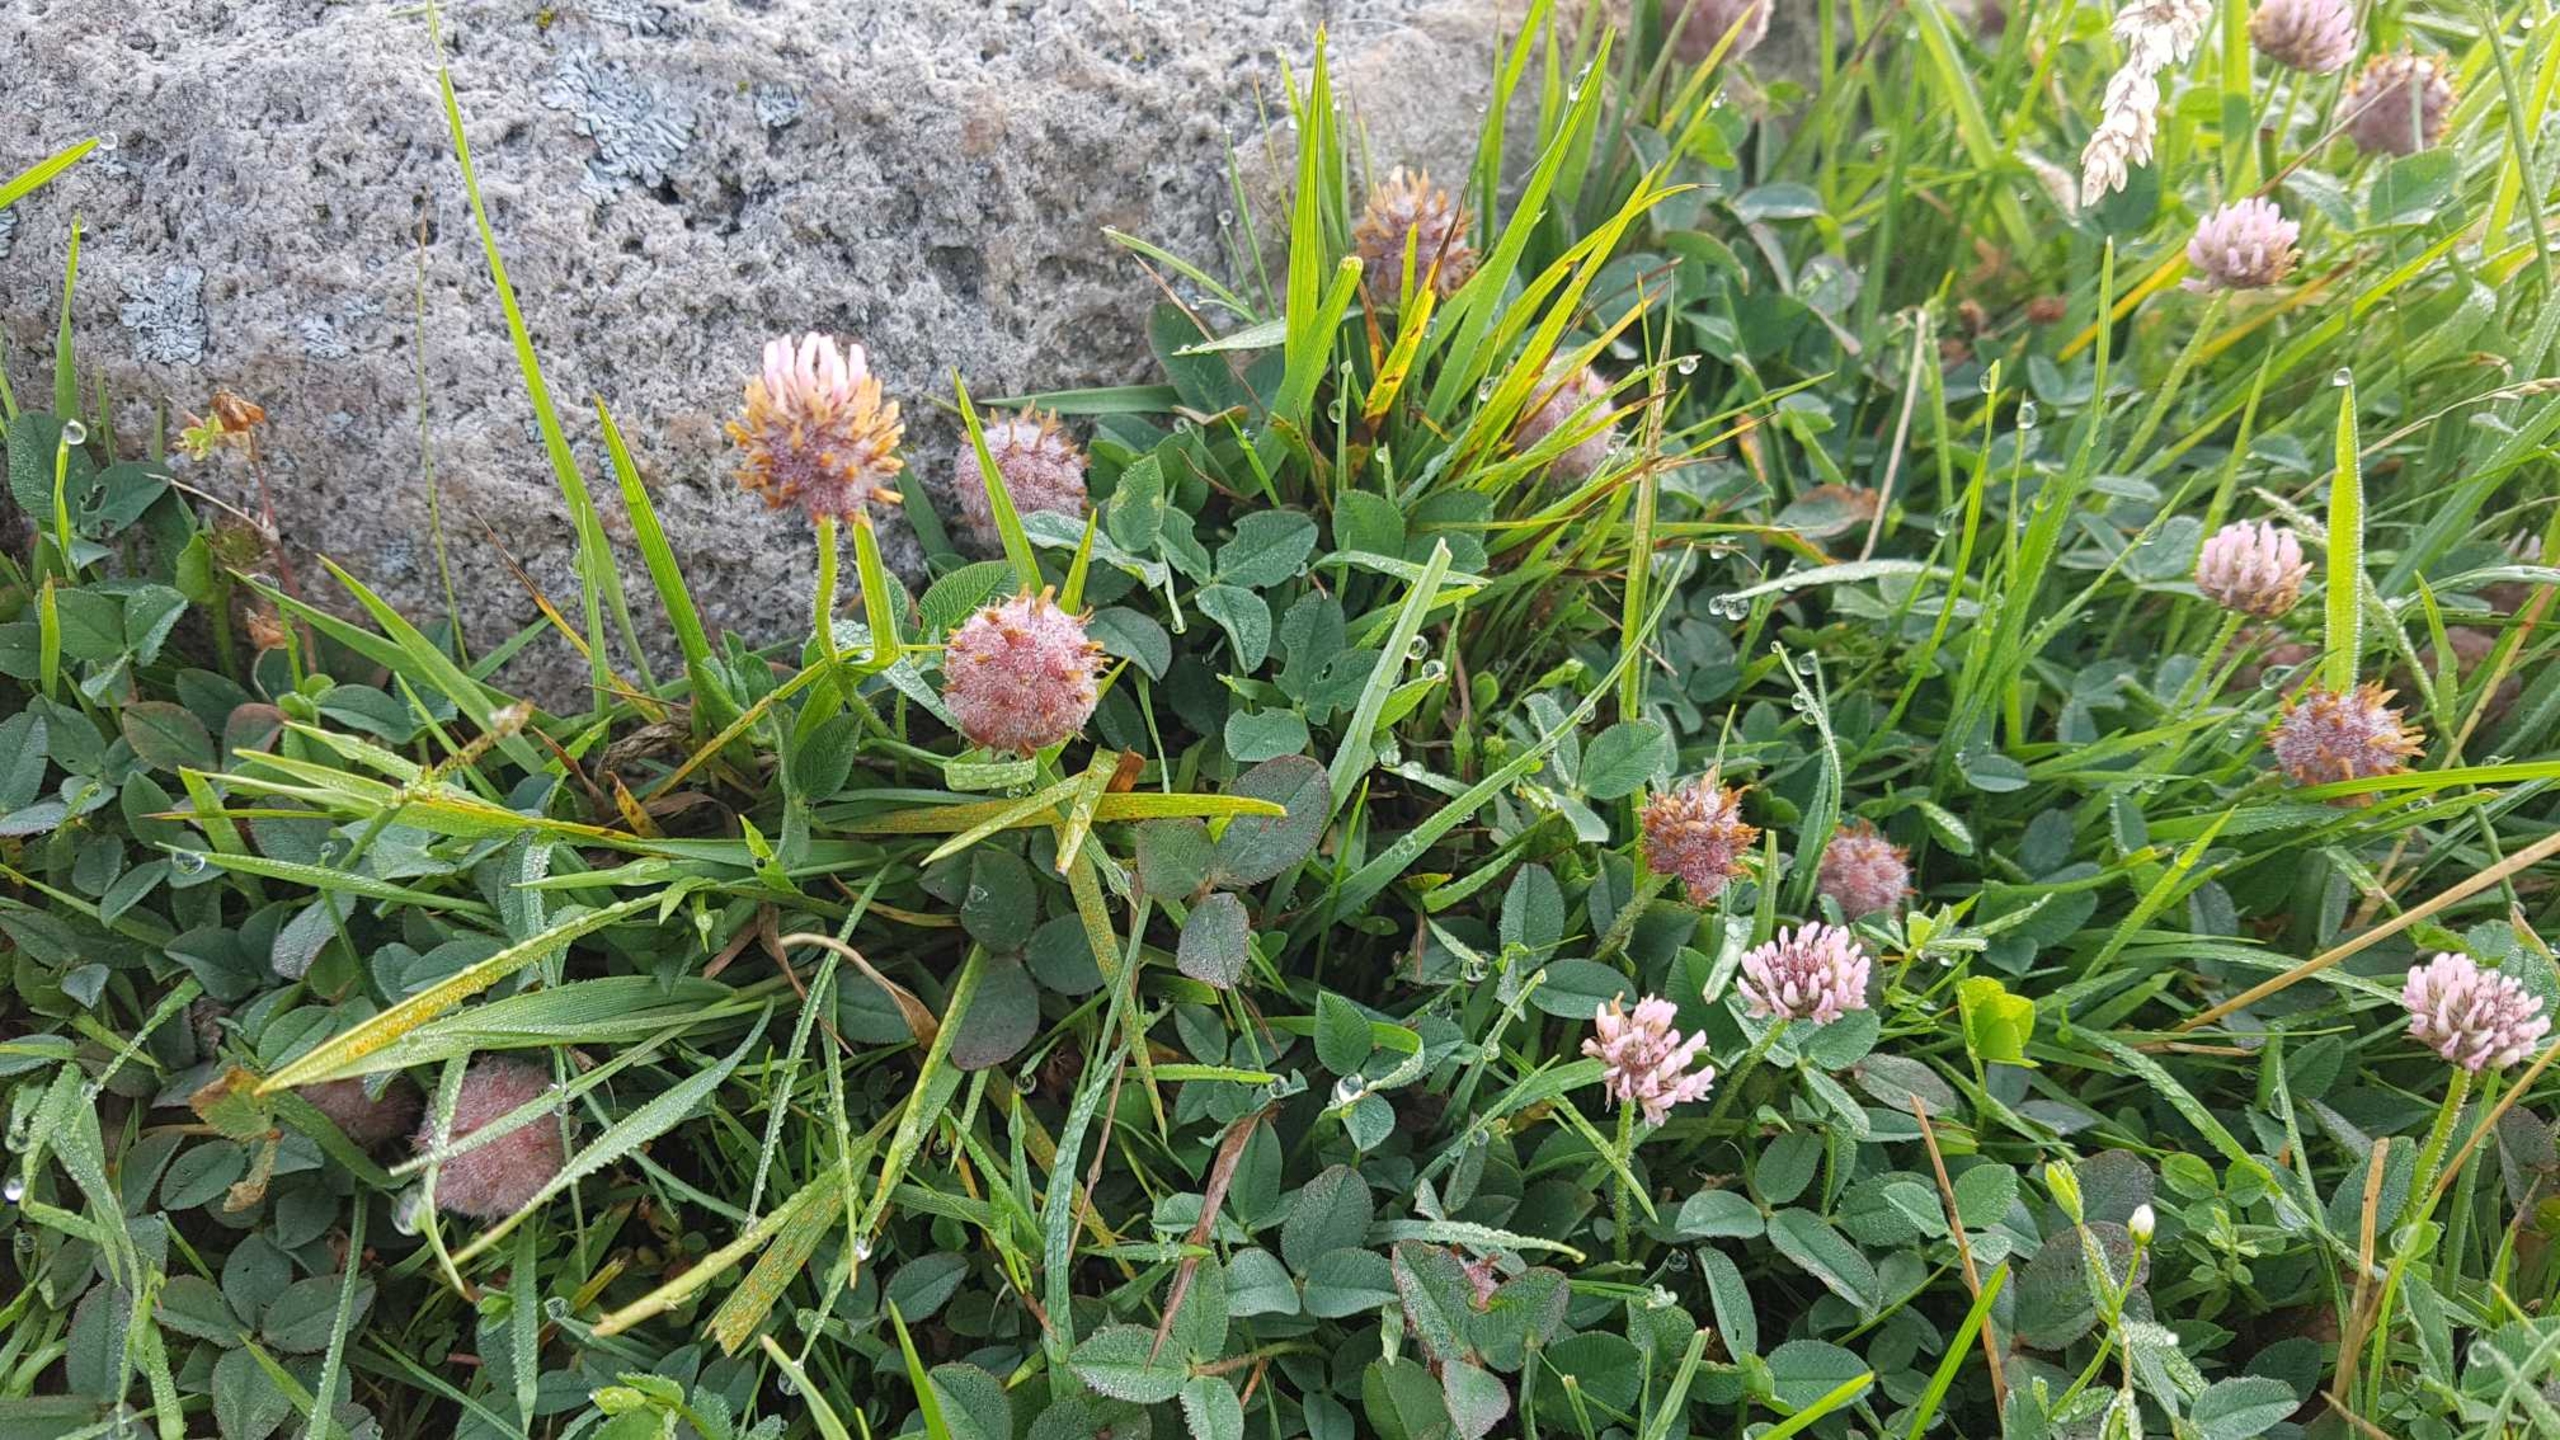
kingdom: Plantae
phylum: Tracheophyta
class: Magnoliopsida
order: Fabales
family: Fabaceae
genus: Trifolium
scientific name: Trifolium fragiferum
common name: Jordbær-kløver
